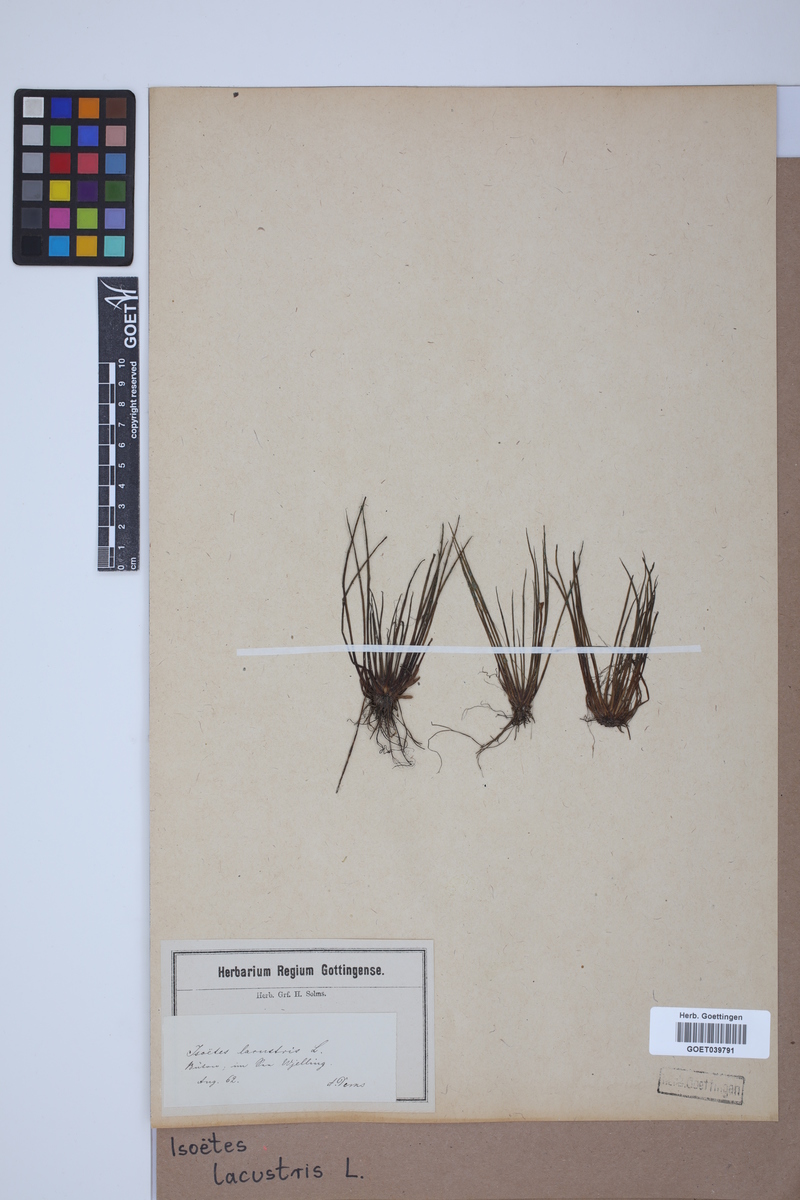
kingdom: Plantae
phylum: Tracheophyta
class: Lycopodiopsida
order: Isoetales
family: Isoetaceae
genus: Isoetes
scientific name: Isoetes lacustris
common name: Common quillwort
